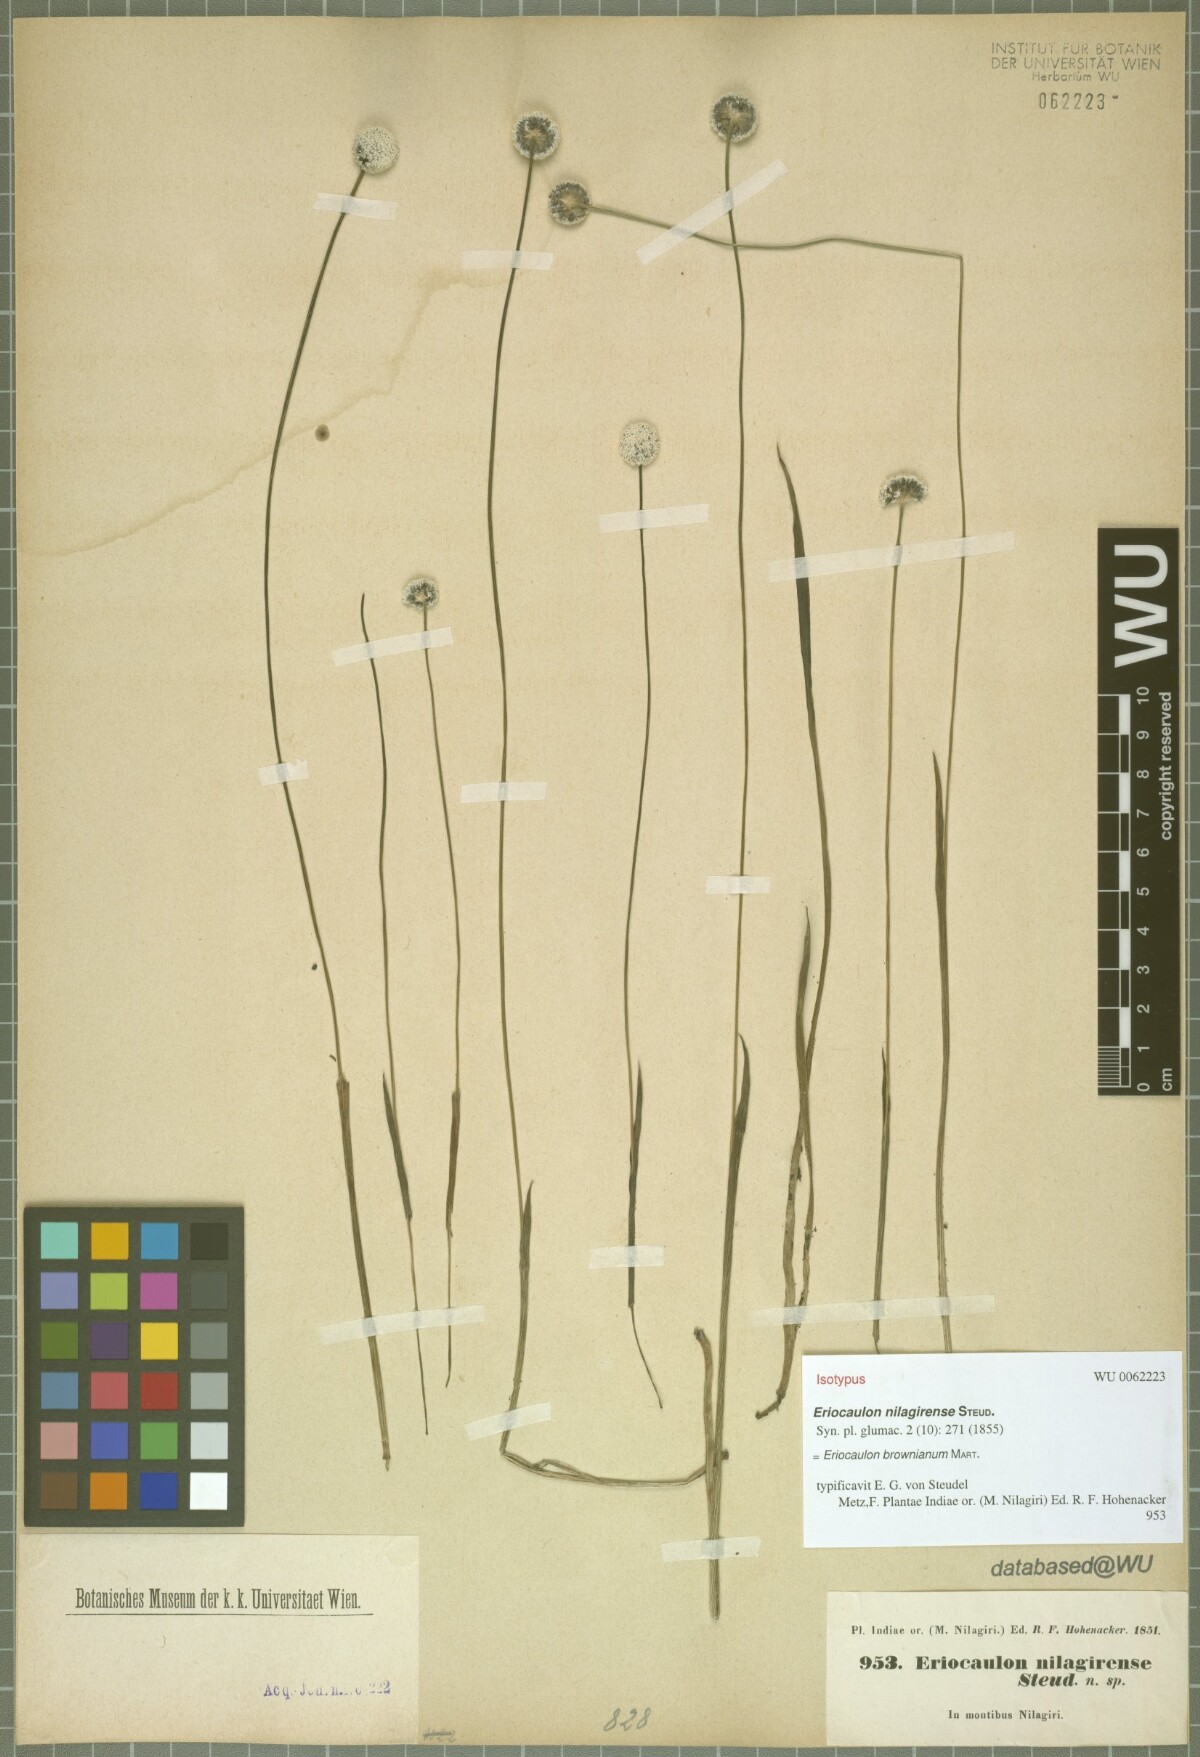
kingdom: Plantae
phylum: Tracheophyta
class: Liliopsida
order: Poales
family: Eriocaulaceae
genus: Eriocaulon
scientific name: Eriocaulon brownianum
